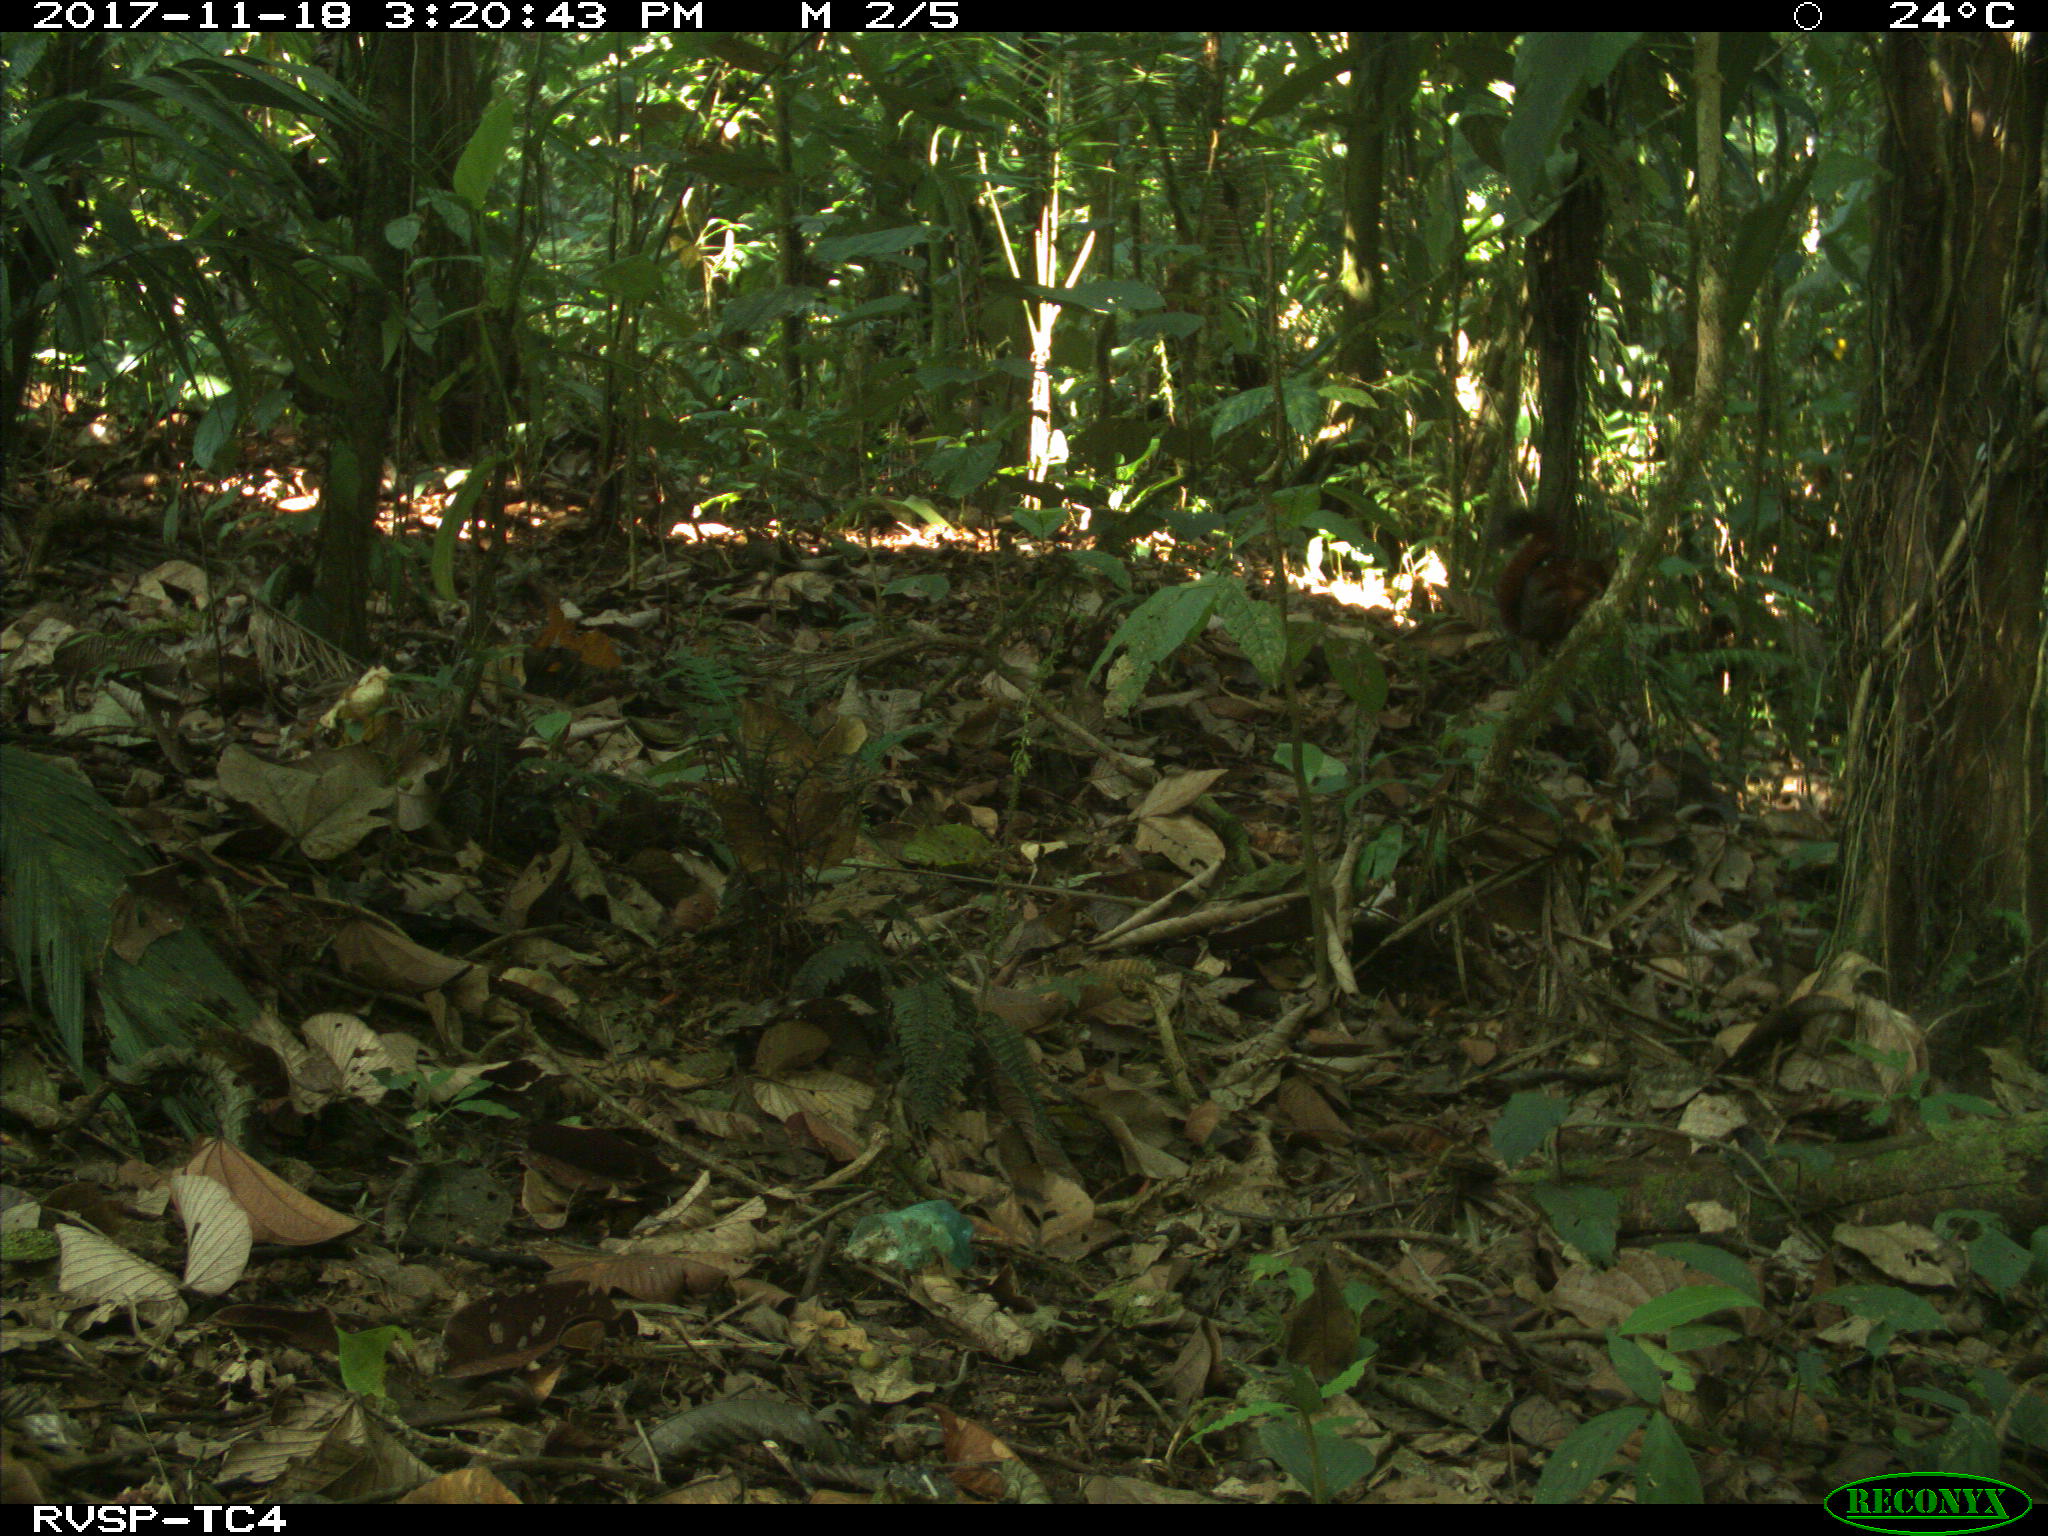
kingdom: Animalia
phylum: Chordata
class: Mammalia
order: Rodentia
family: Sciuridae
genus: Sciurus
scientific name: Sciurus granatensis
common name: Red-tailed squirrel
